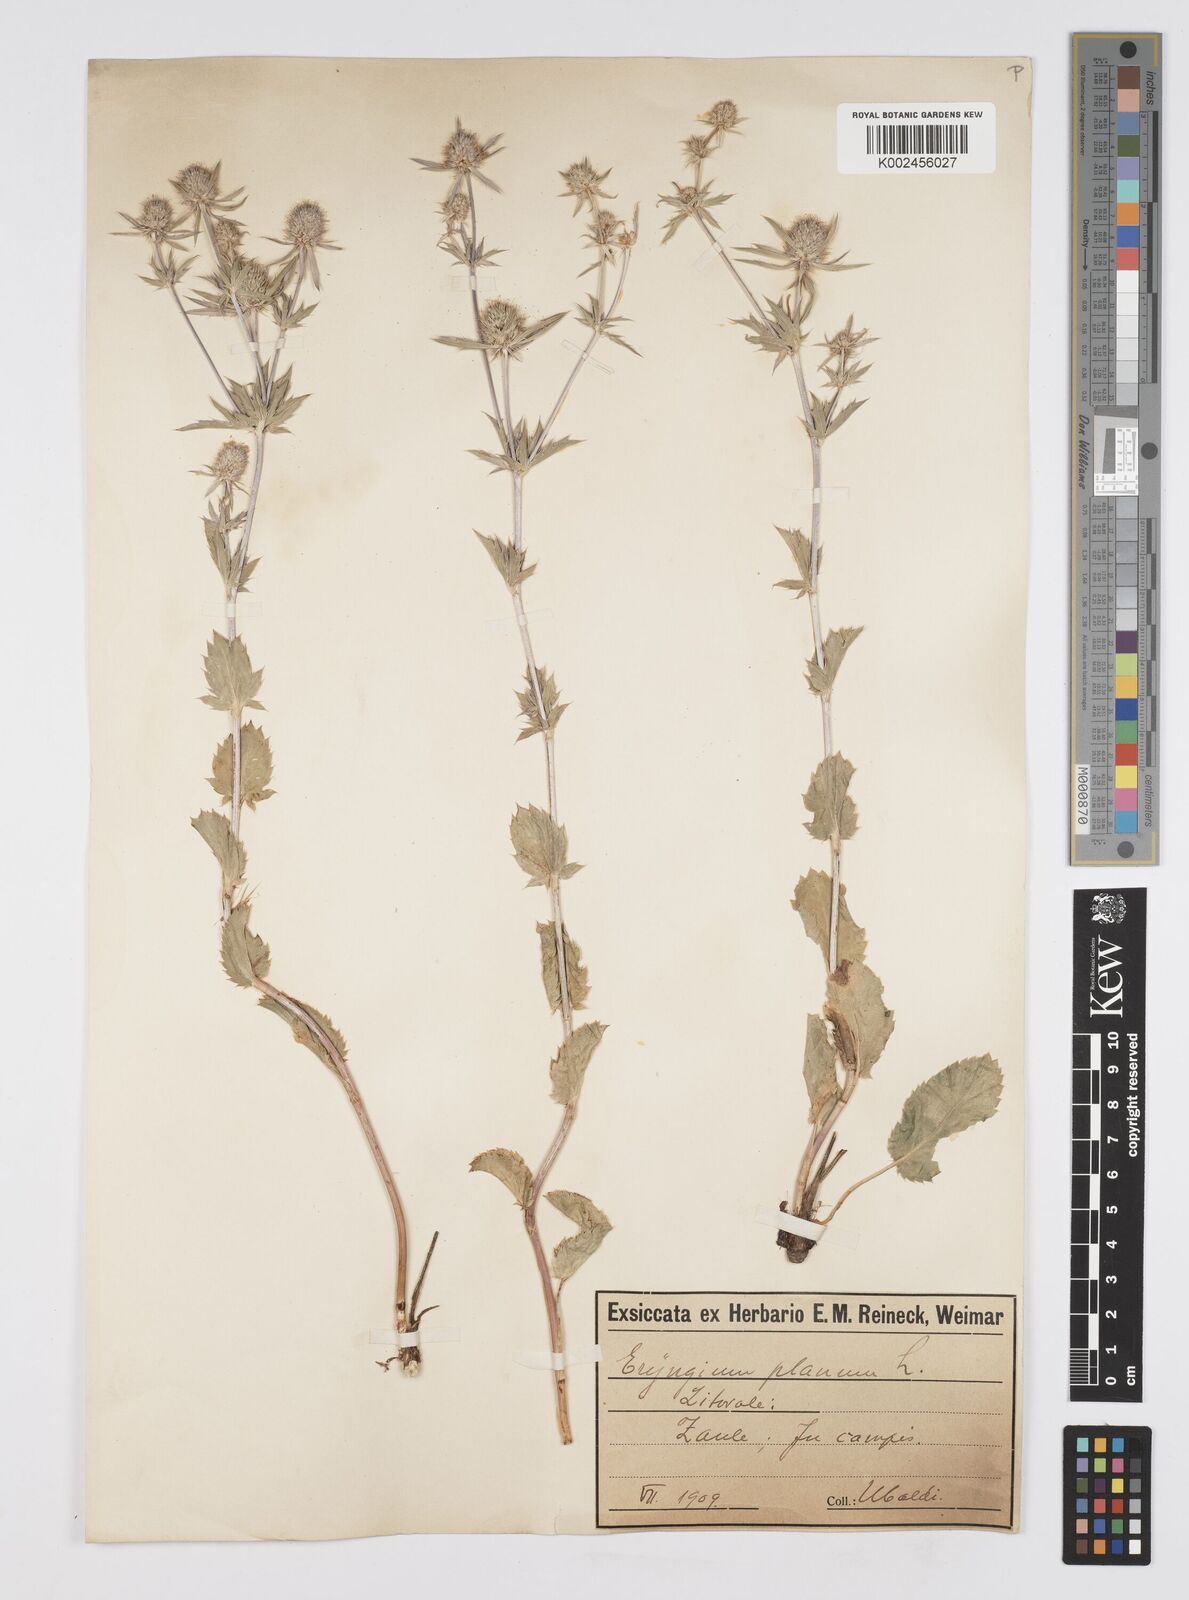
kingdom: Plantae
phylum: Tracheophyta
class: Magnoliopsida
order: Apiales
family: Apiaceae
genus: Eryngium
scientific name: Eryngium planum
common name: Blue eryngo
